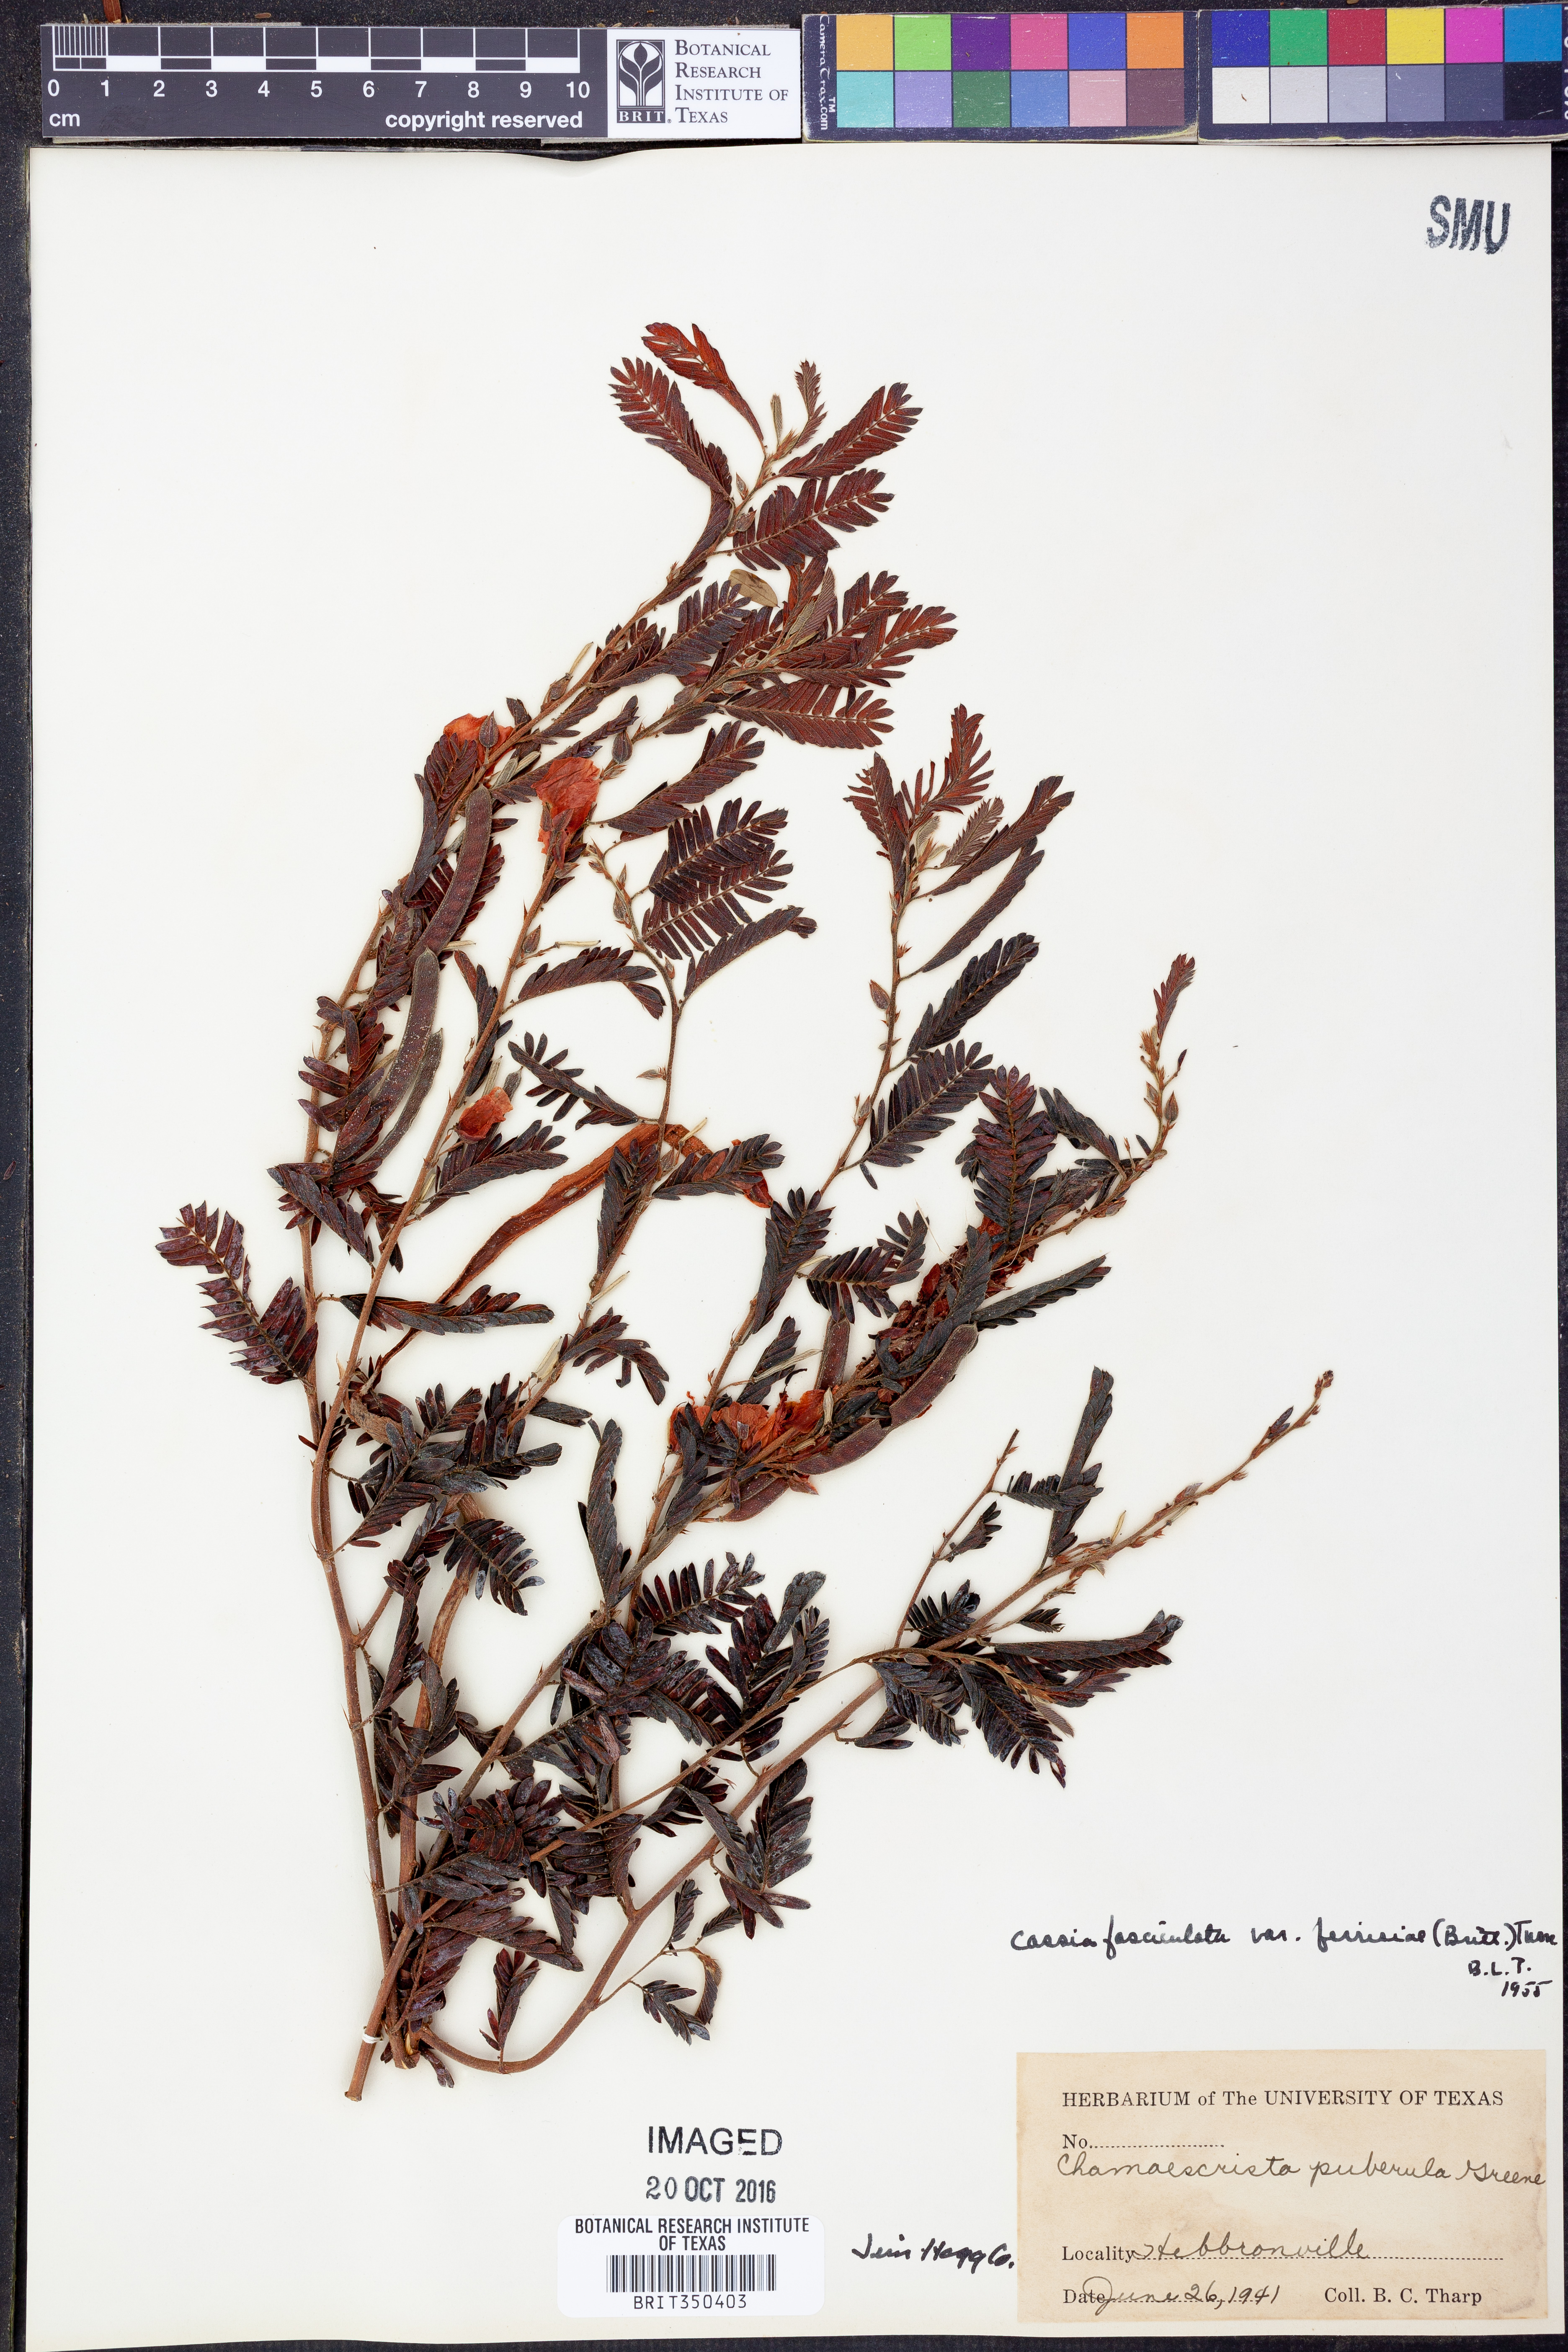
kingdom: Plantae
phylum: Tracheophyta
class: Magnoliopsida
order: Fabales
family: Fabaceae
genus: Chamaecrista
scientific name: Chamaecrista fasciculata
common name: Golden cassia
